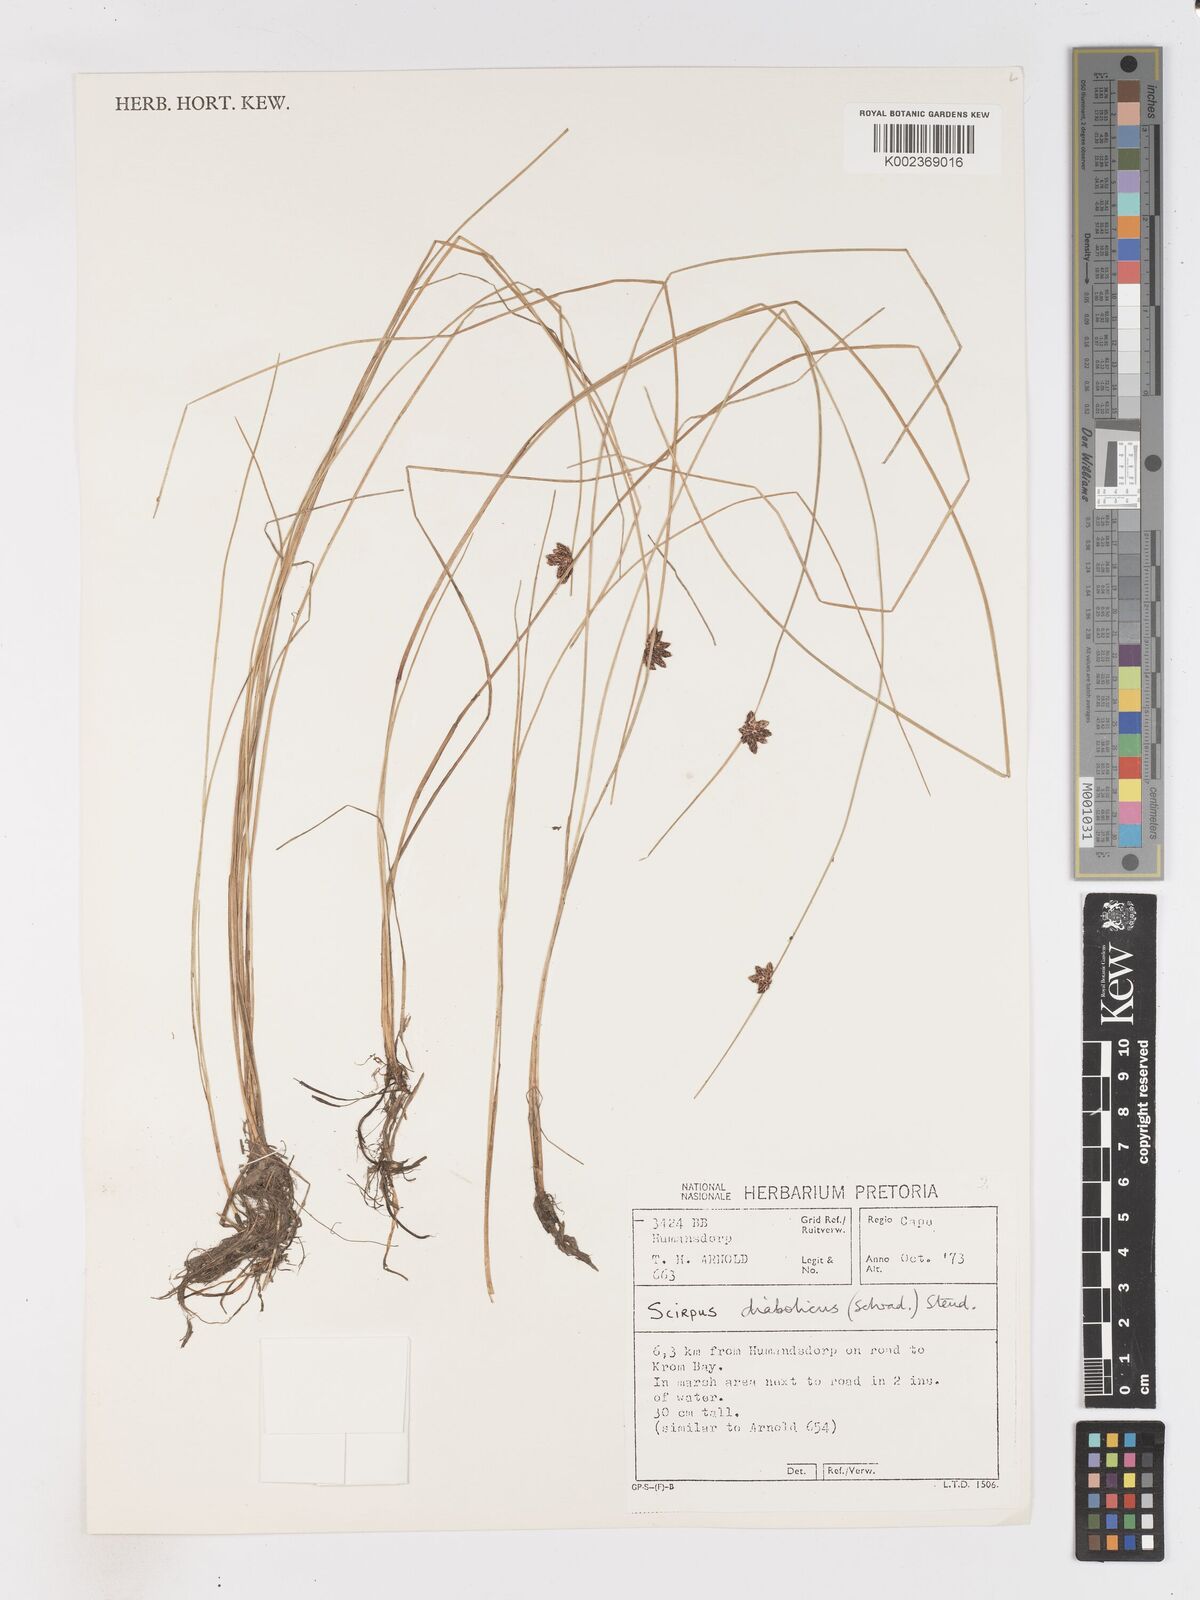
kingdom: Plantae
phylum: Tracheophyta
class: Liliopsida
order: Poales
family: Cyperaceae
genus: Isolepis
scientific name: Isolepis diabolica
